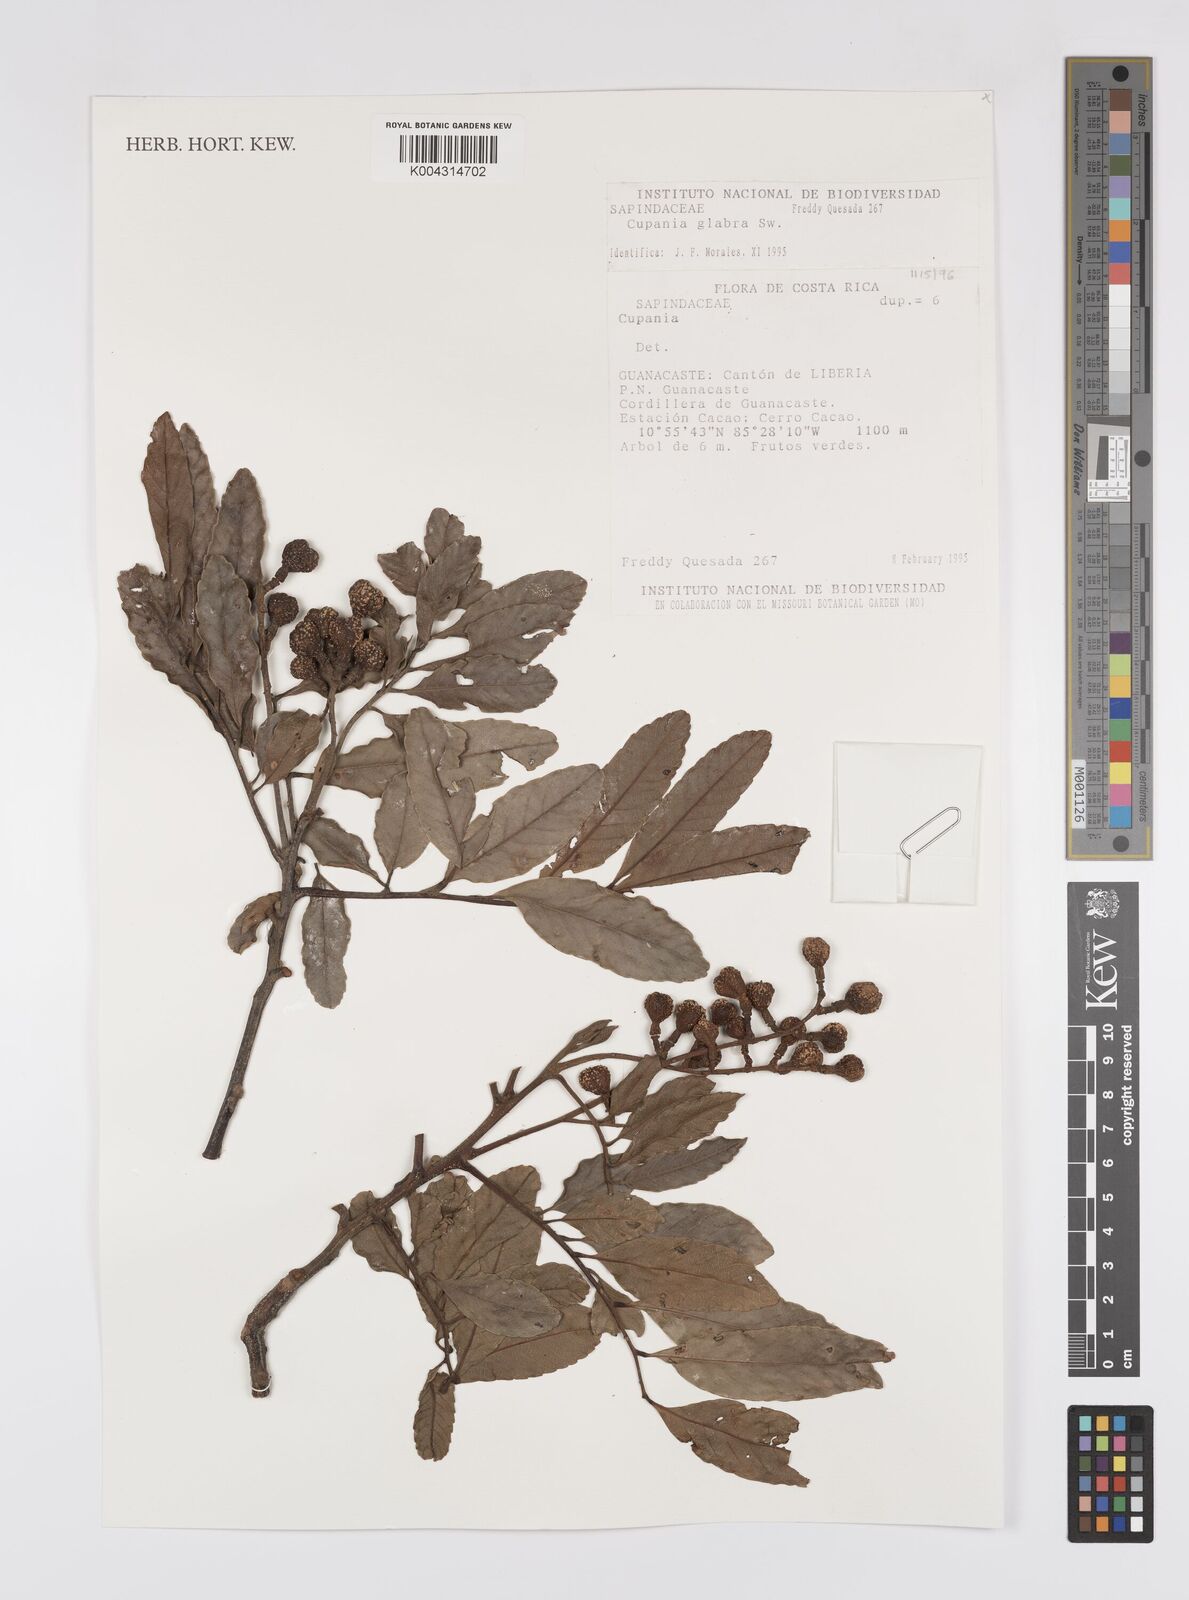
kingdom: Plantae
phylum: Tracheophyta
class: Magnoliopsida
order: Sapindales
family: Sapindaceae
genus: Cupania
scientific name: Cupania
